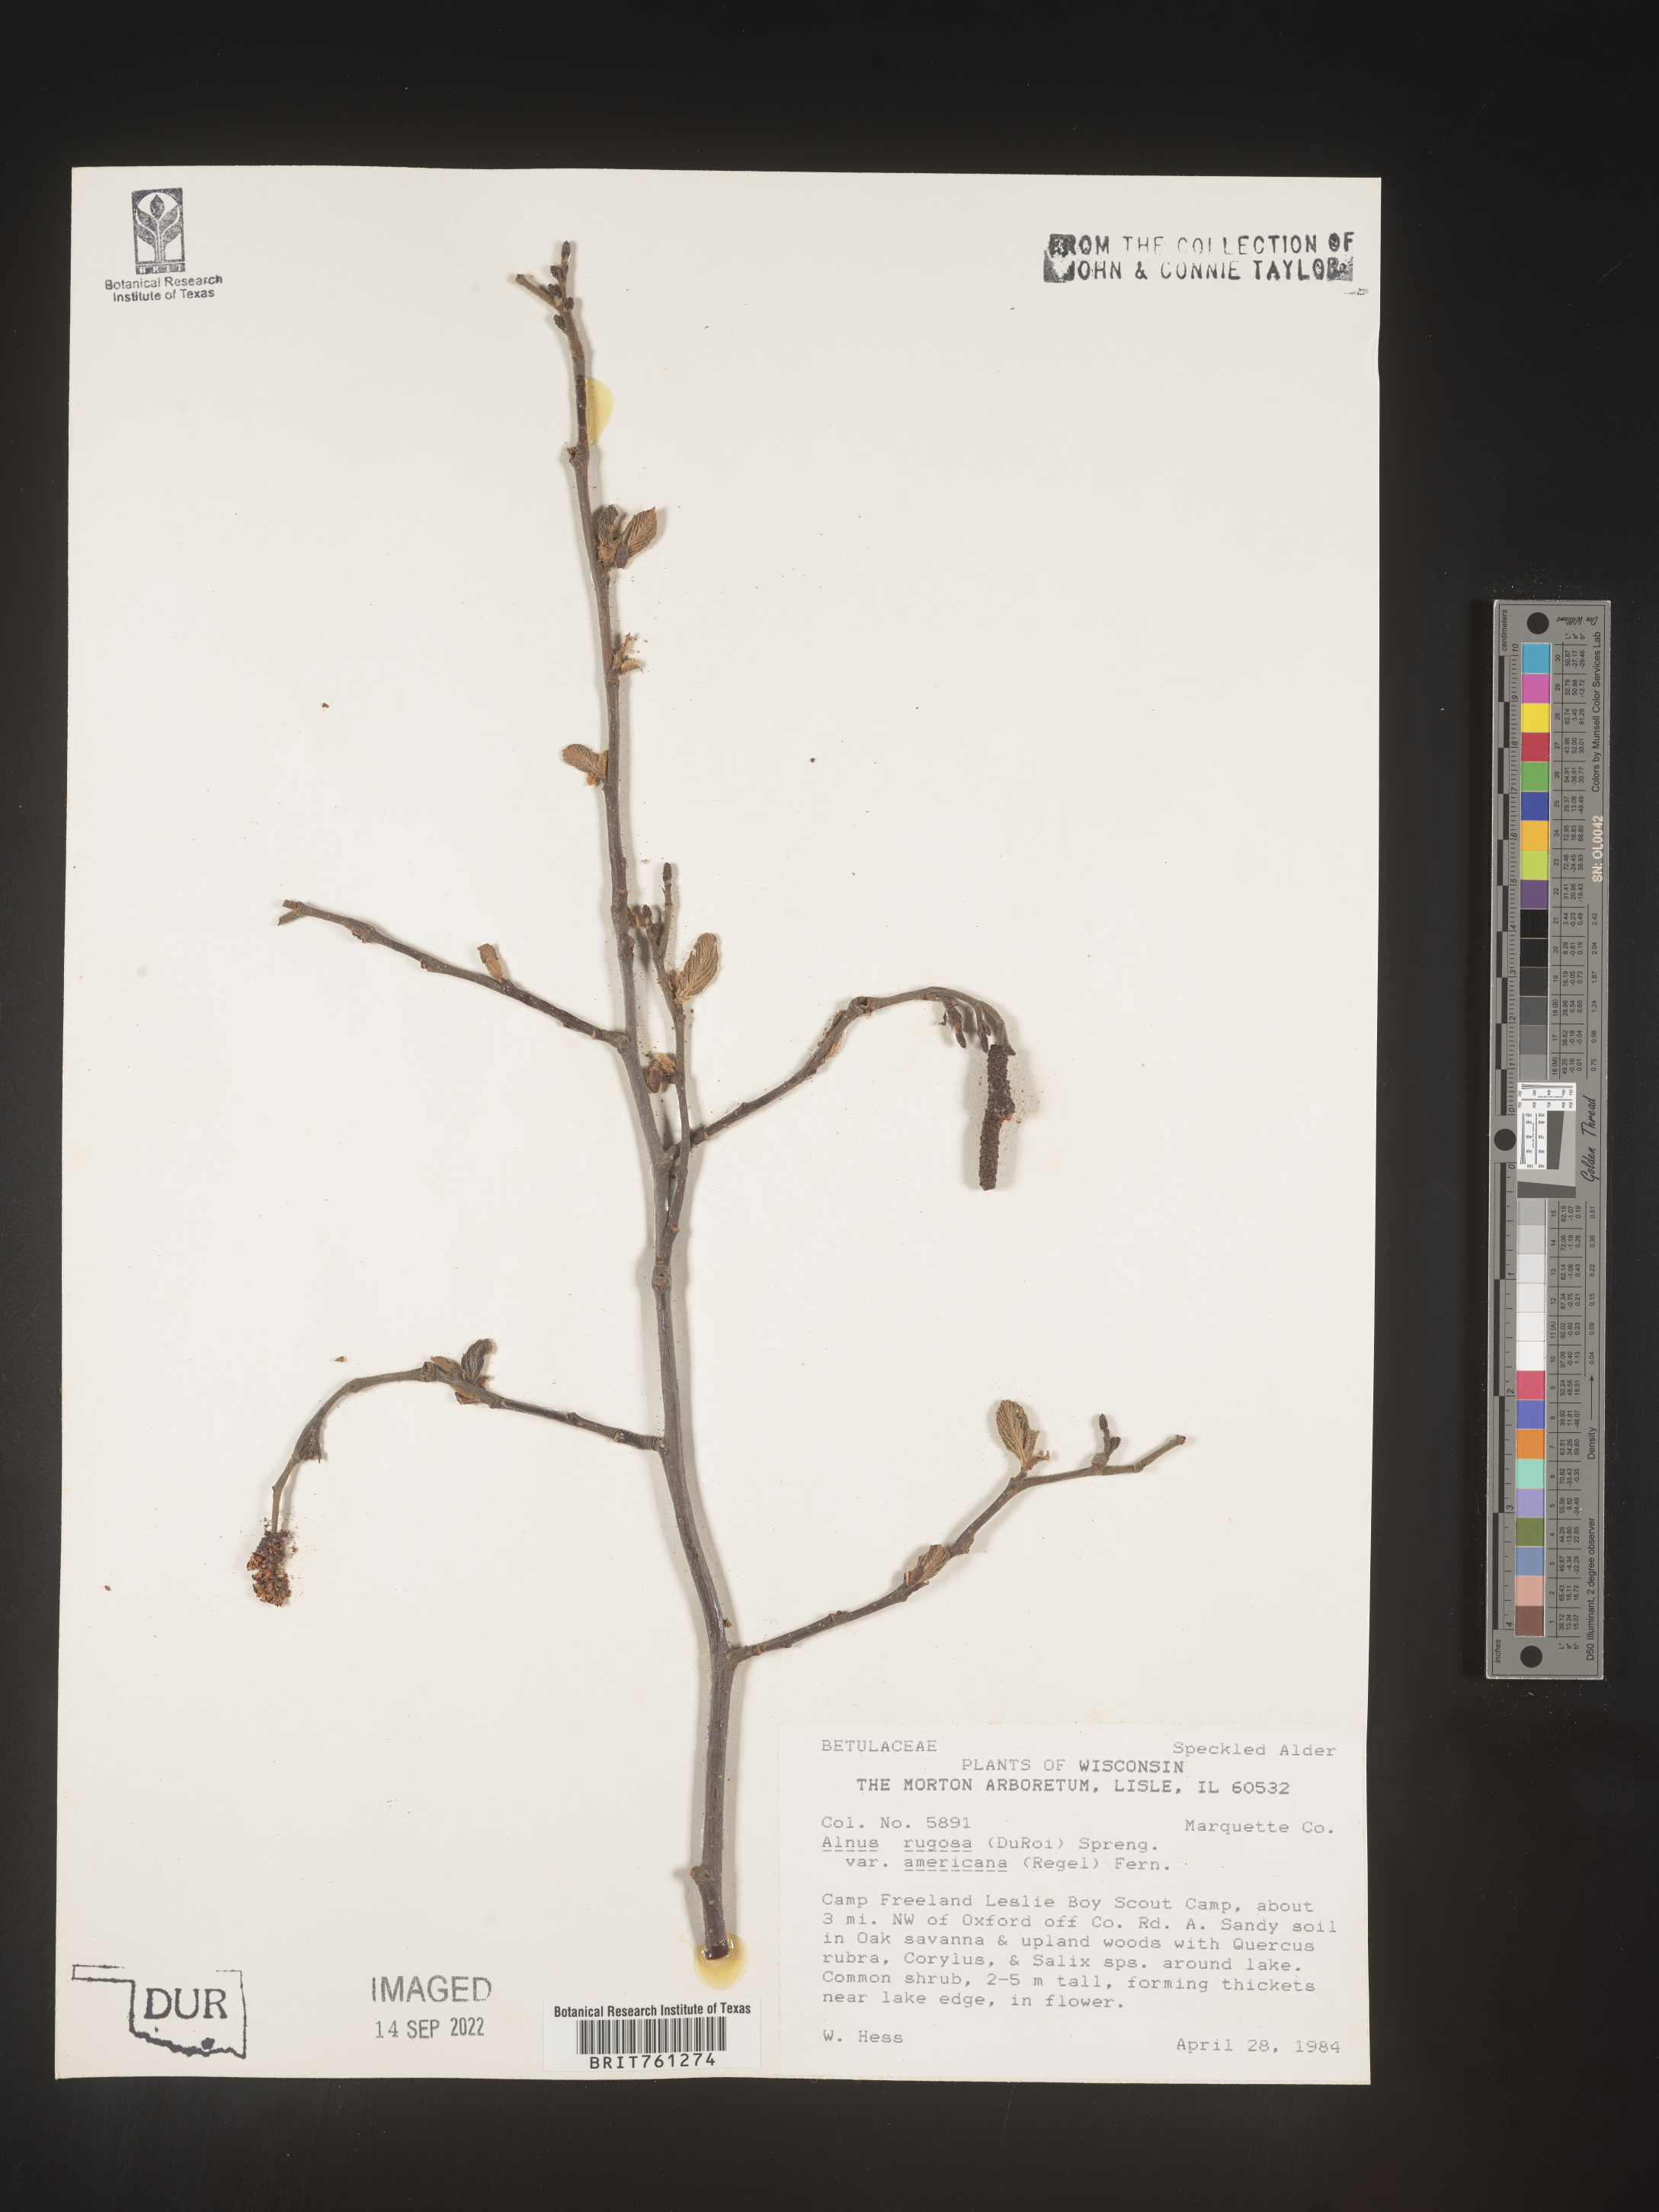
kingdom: Plantae
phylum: Tracheophyta
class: Magnoliopsida
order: Fagales
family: Betulaceae
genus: Alnus
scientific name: Alnus incana
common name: Grey alder
